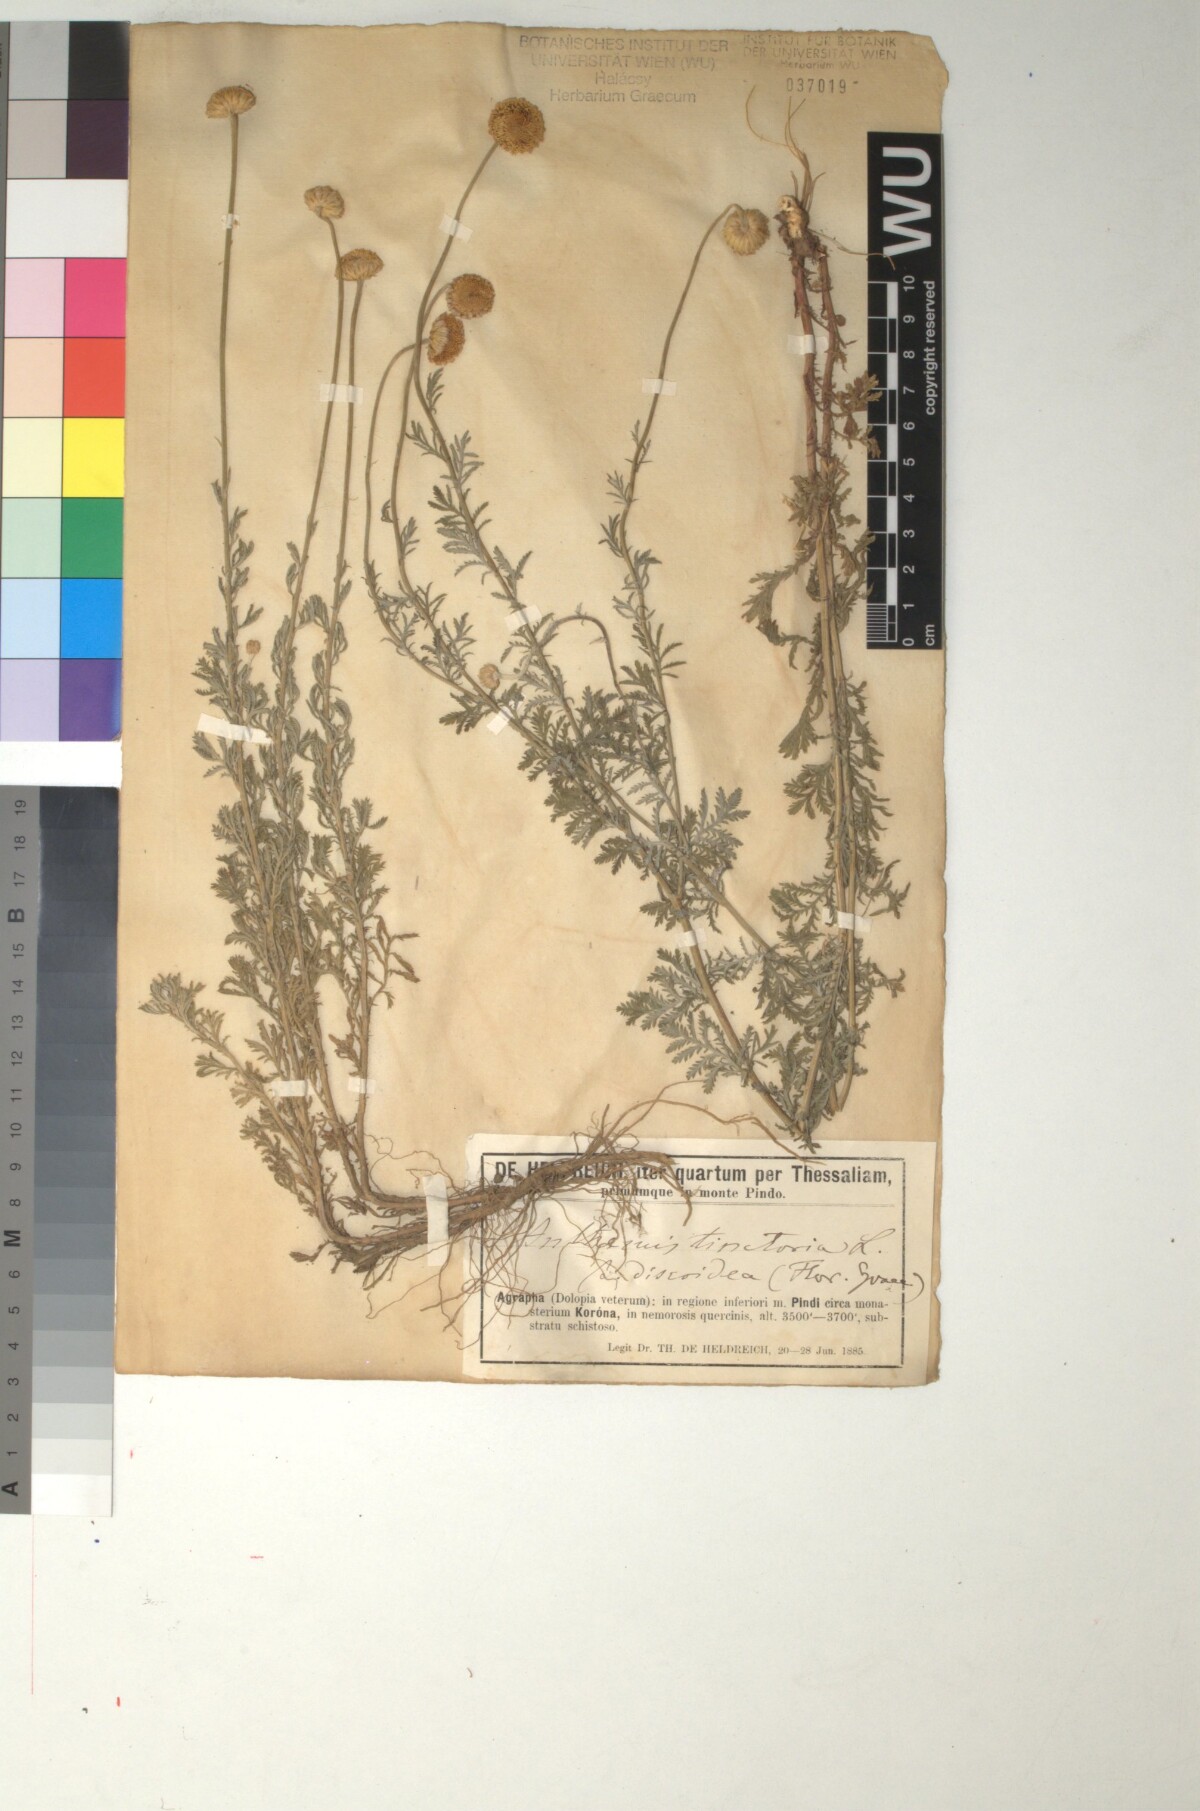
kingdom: Plantae
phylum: Tracheophyta
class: Magnoliopsida
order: Asterales
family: Asteraceae
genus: Cota
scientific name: Cota tinctoria
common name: Golden chamomile
